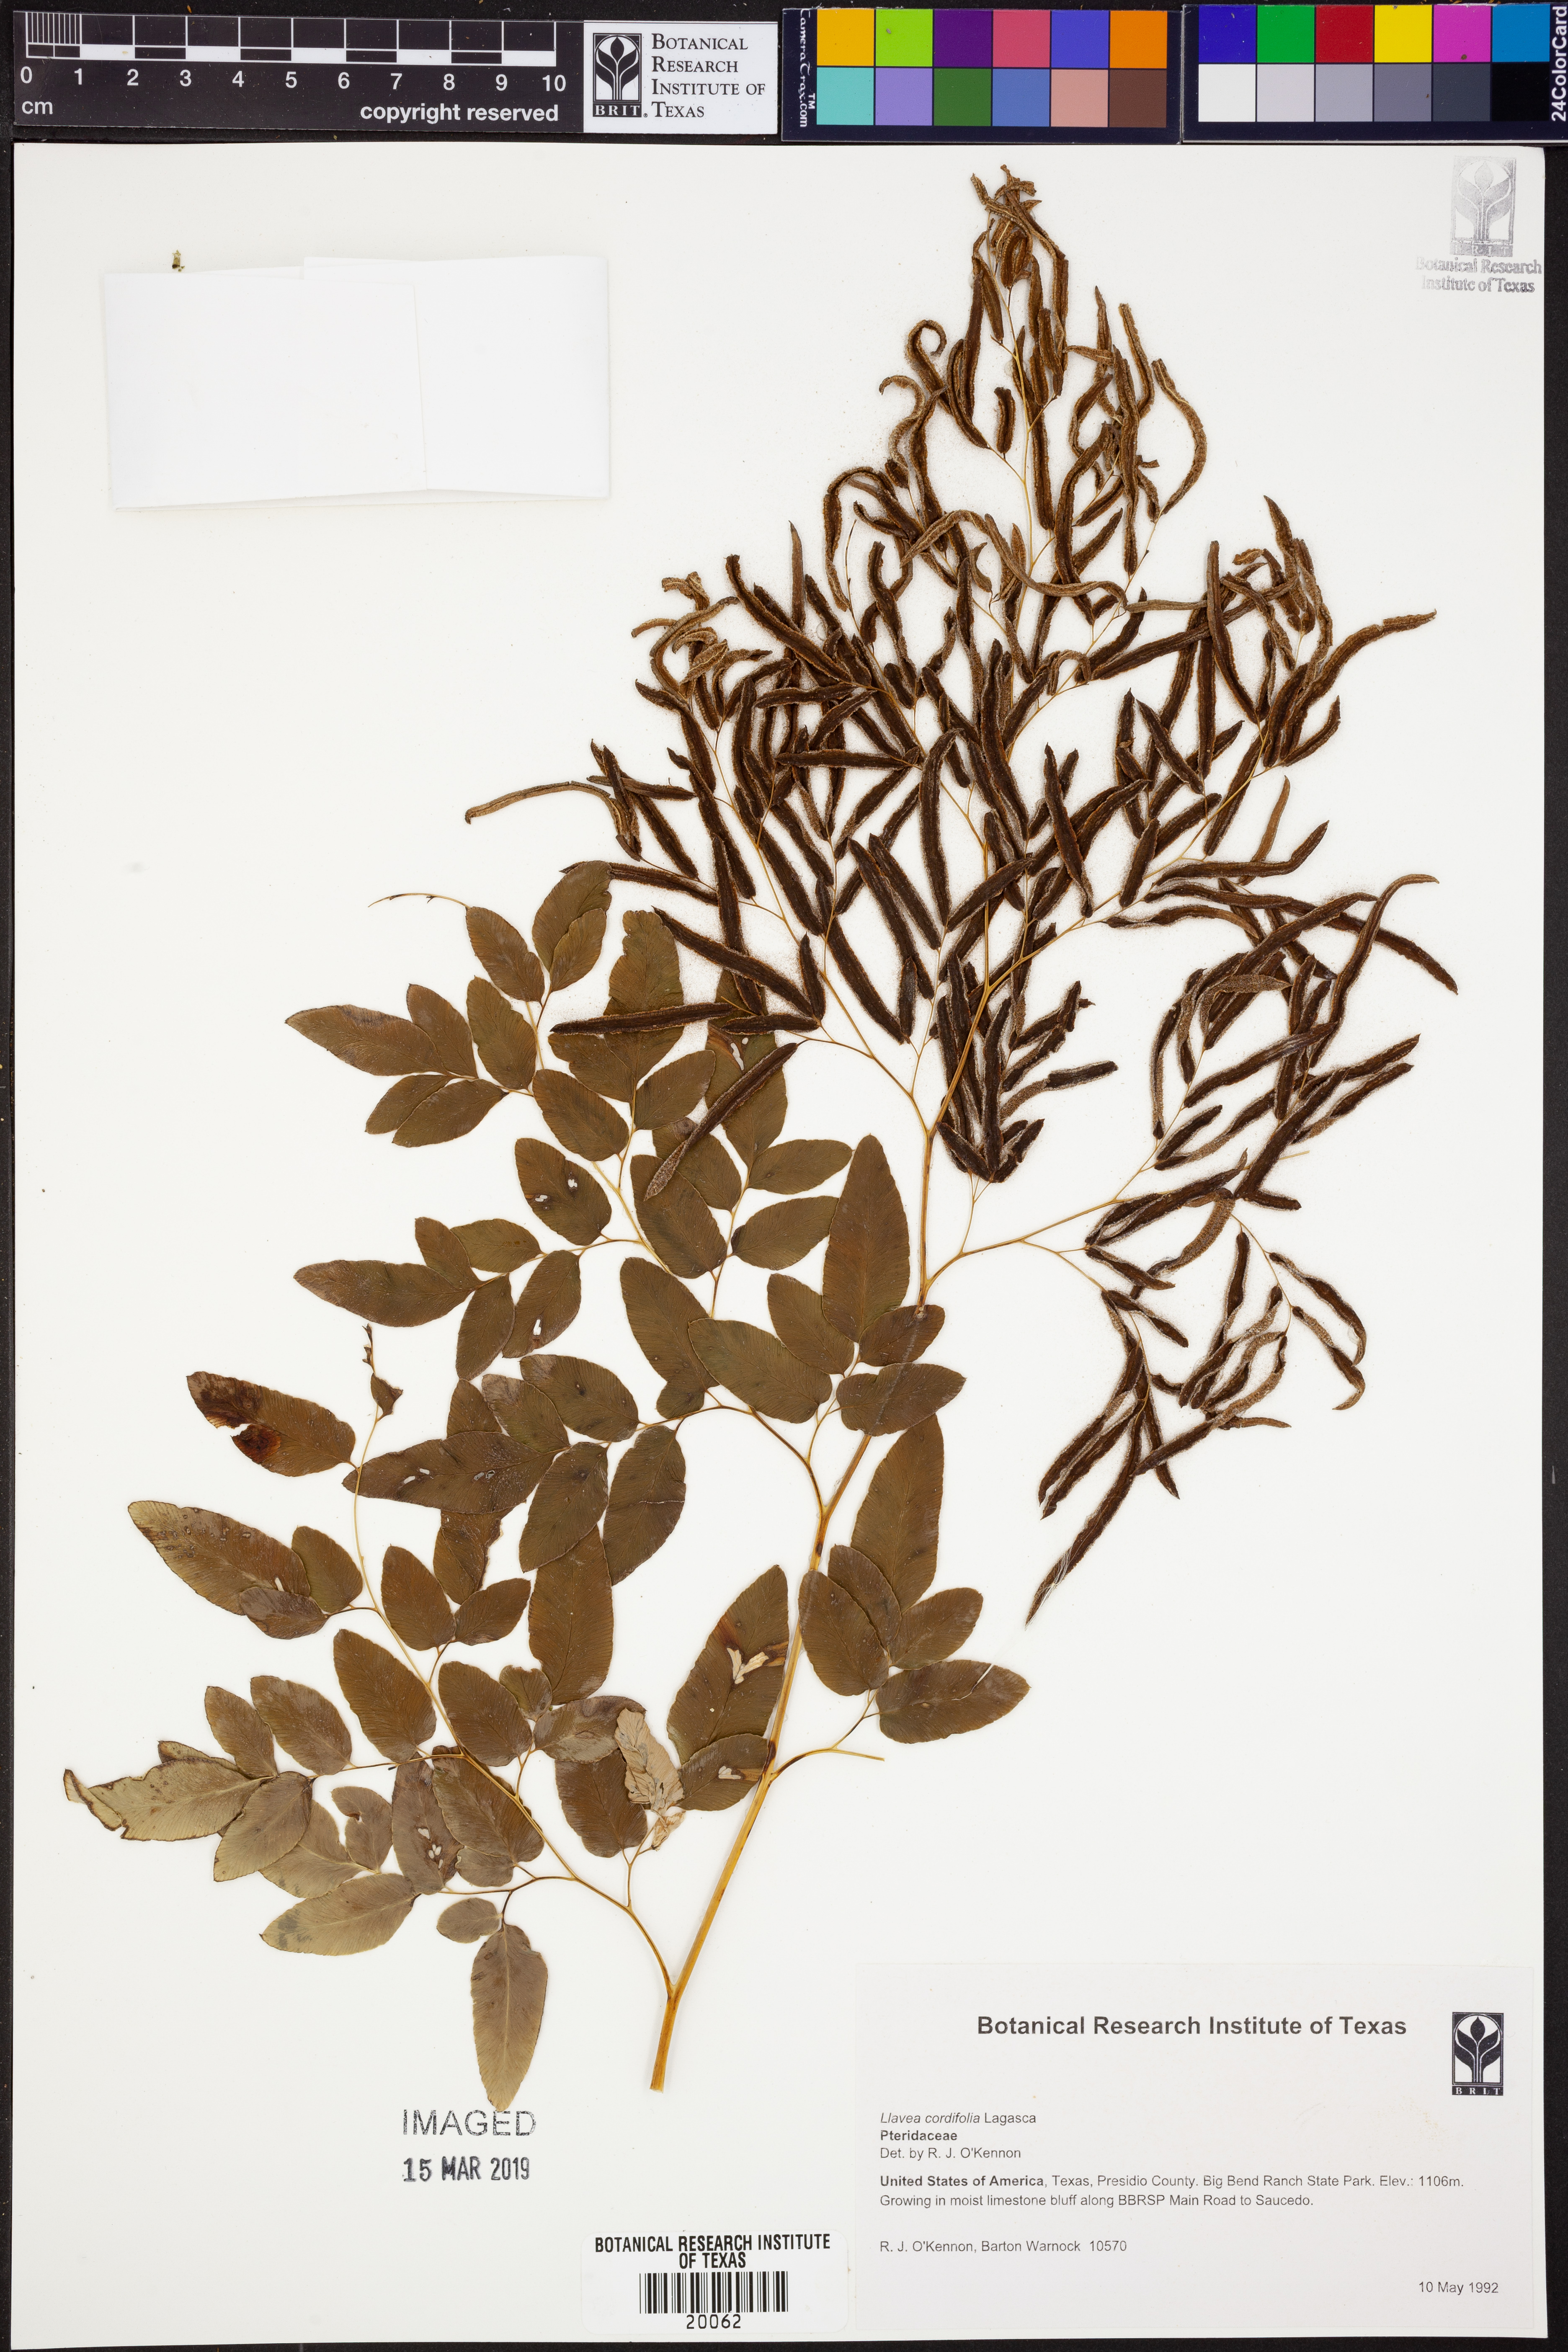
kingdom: Plantae
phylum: Tracheophyta
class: Polypodiopsida
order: Polypodiales
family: Pteridaceae
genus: Llavea
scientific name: Llavea cordifolia
